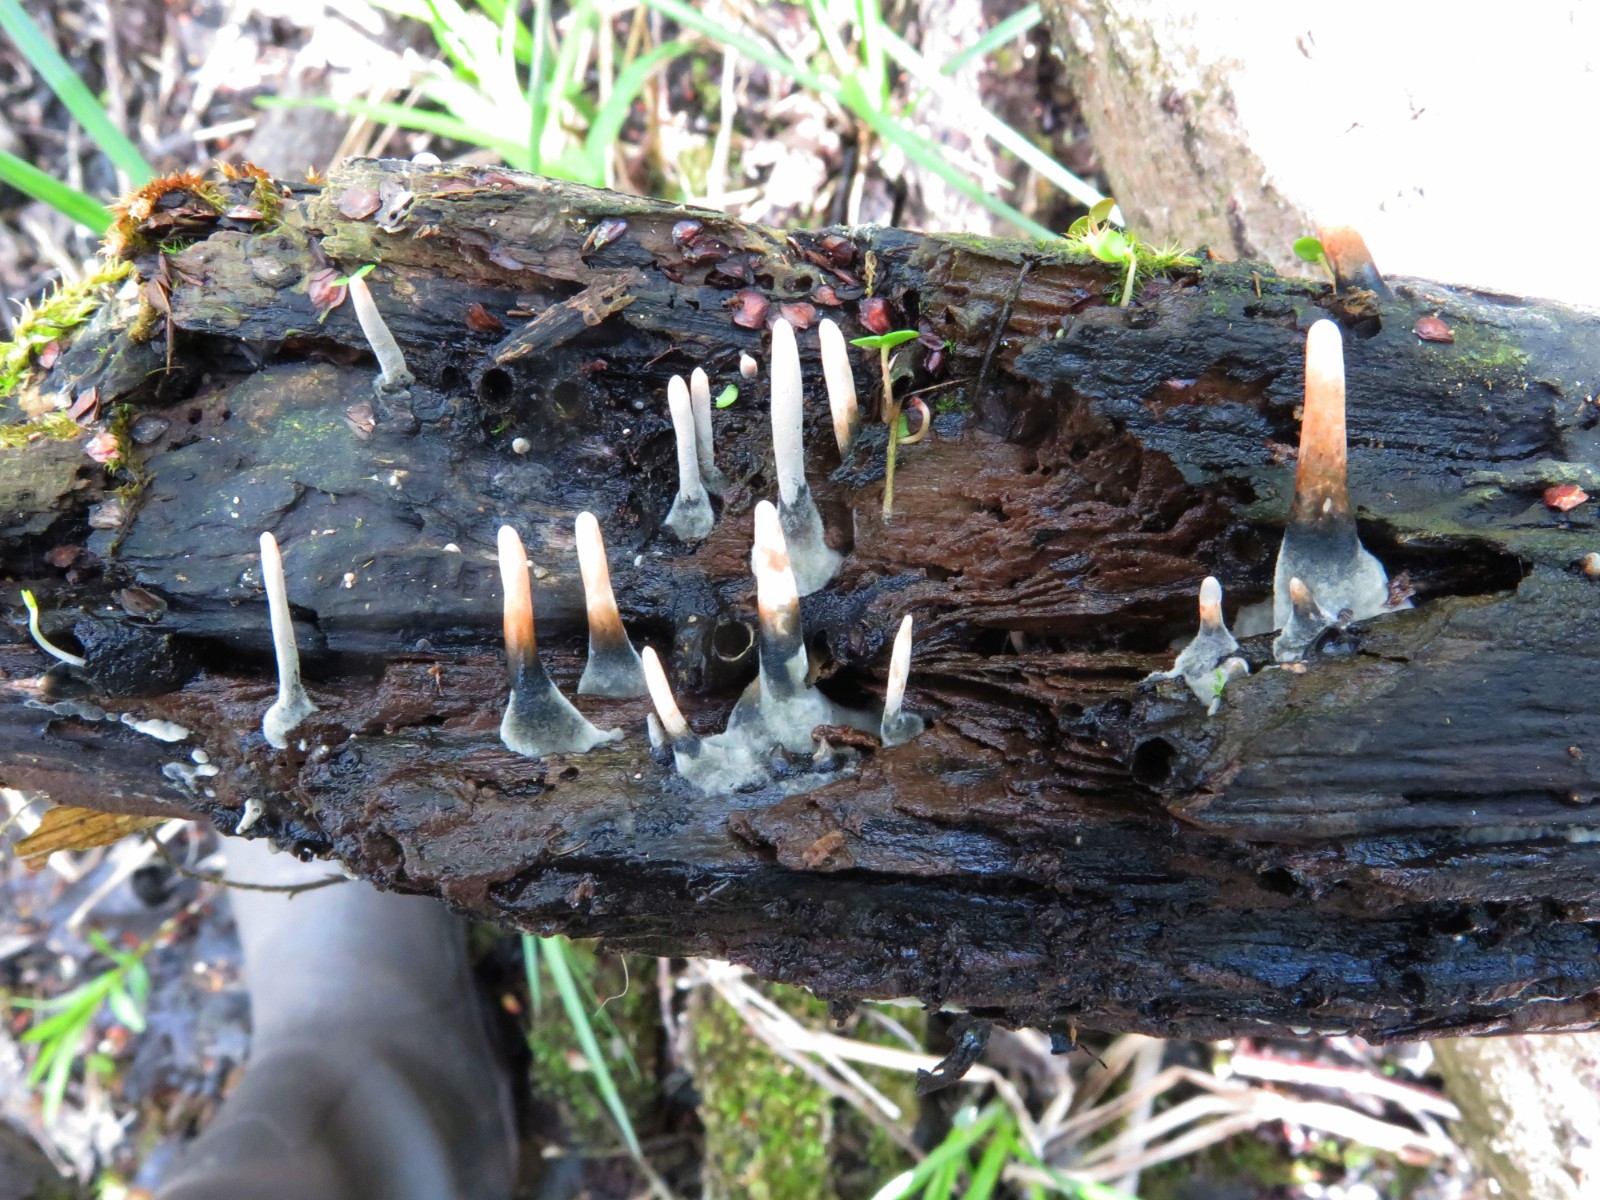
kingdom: Fungi
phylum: Ascomycota
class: Sordariomycetes
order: Xylariales
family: Xylariaceae
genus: Xylaria
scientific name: Xylaria longipes
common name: slank stødsvamp
